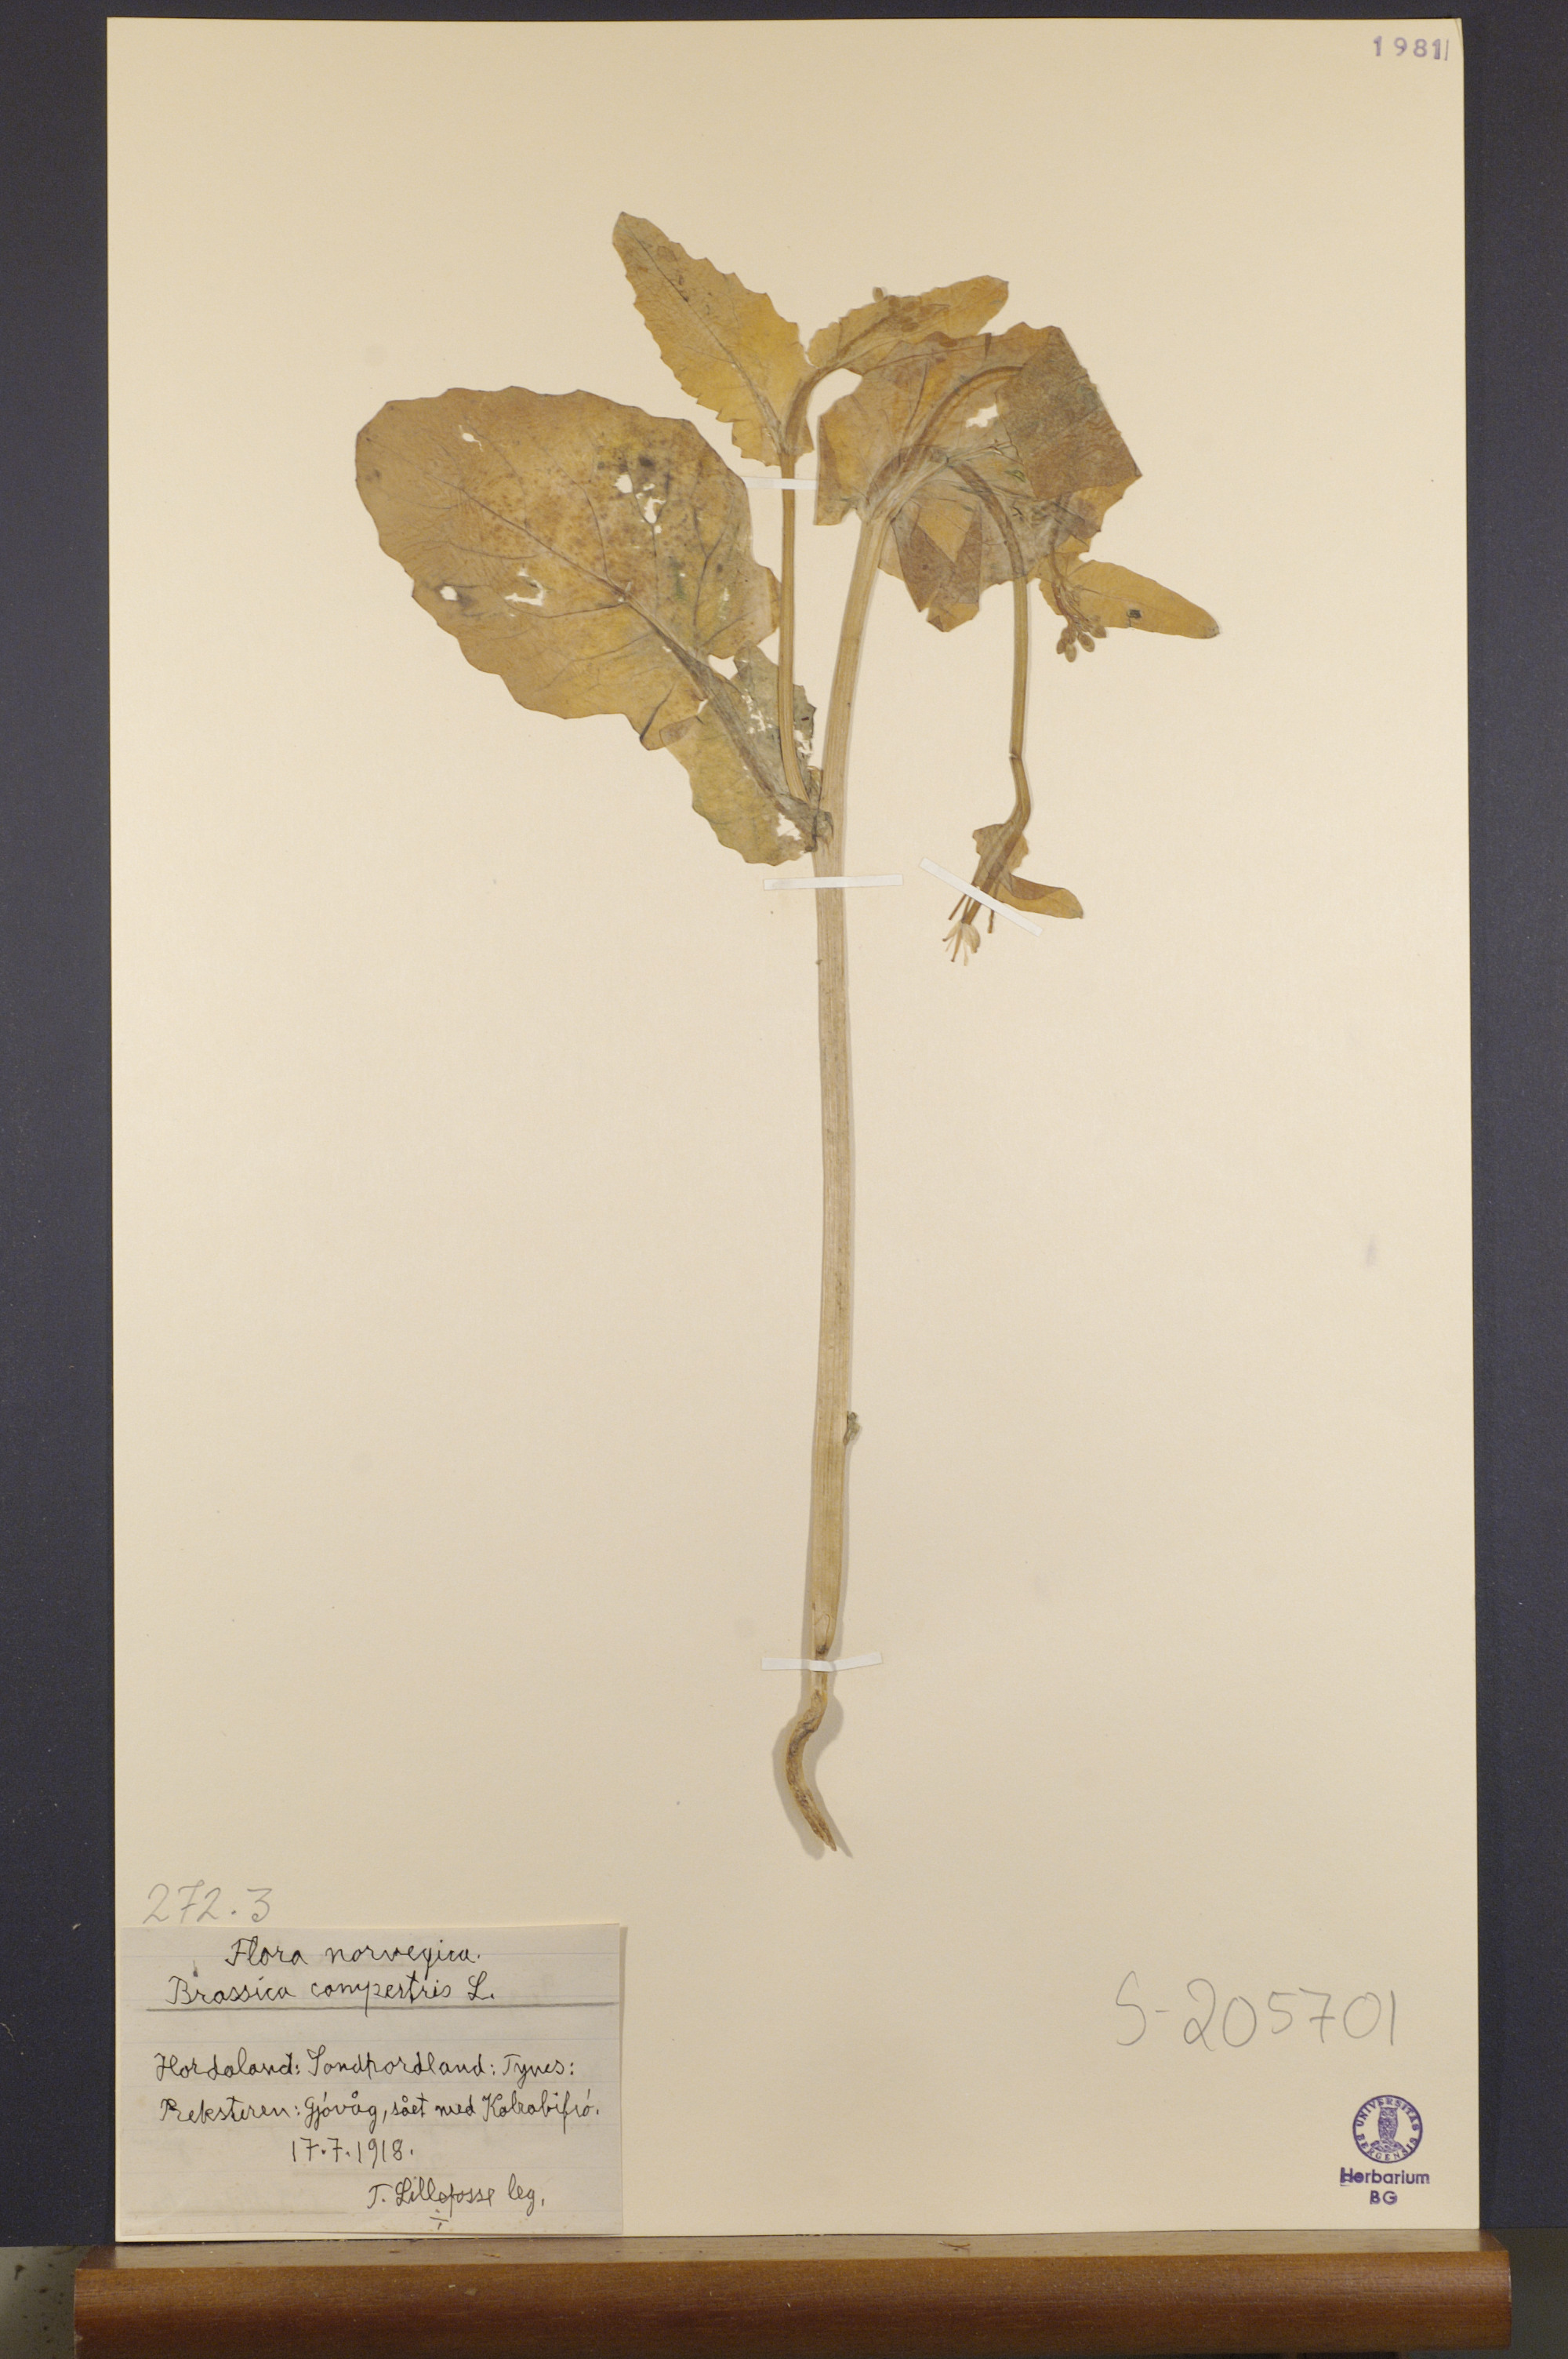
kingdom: Plantae
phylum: Tracheophyta
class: Magnoliopsida
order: Brassicales
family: Brassicaceae
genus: Brassica
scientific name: Brassica rapa
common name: Field mustard
